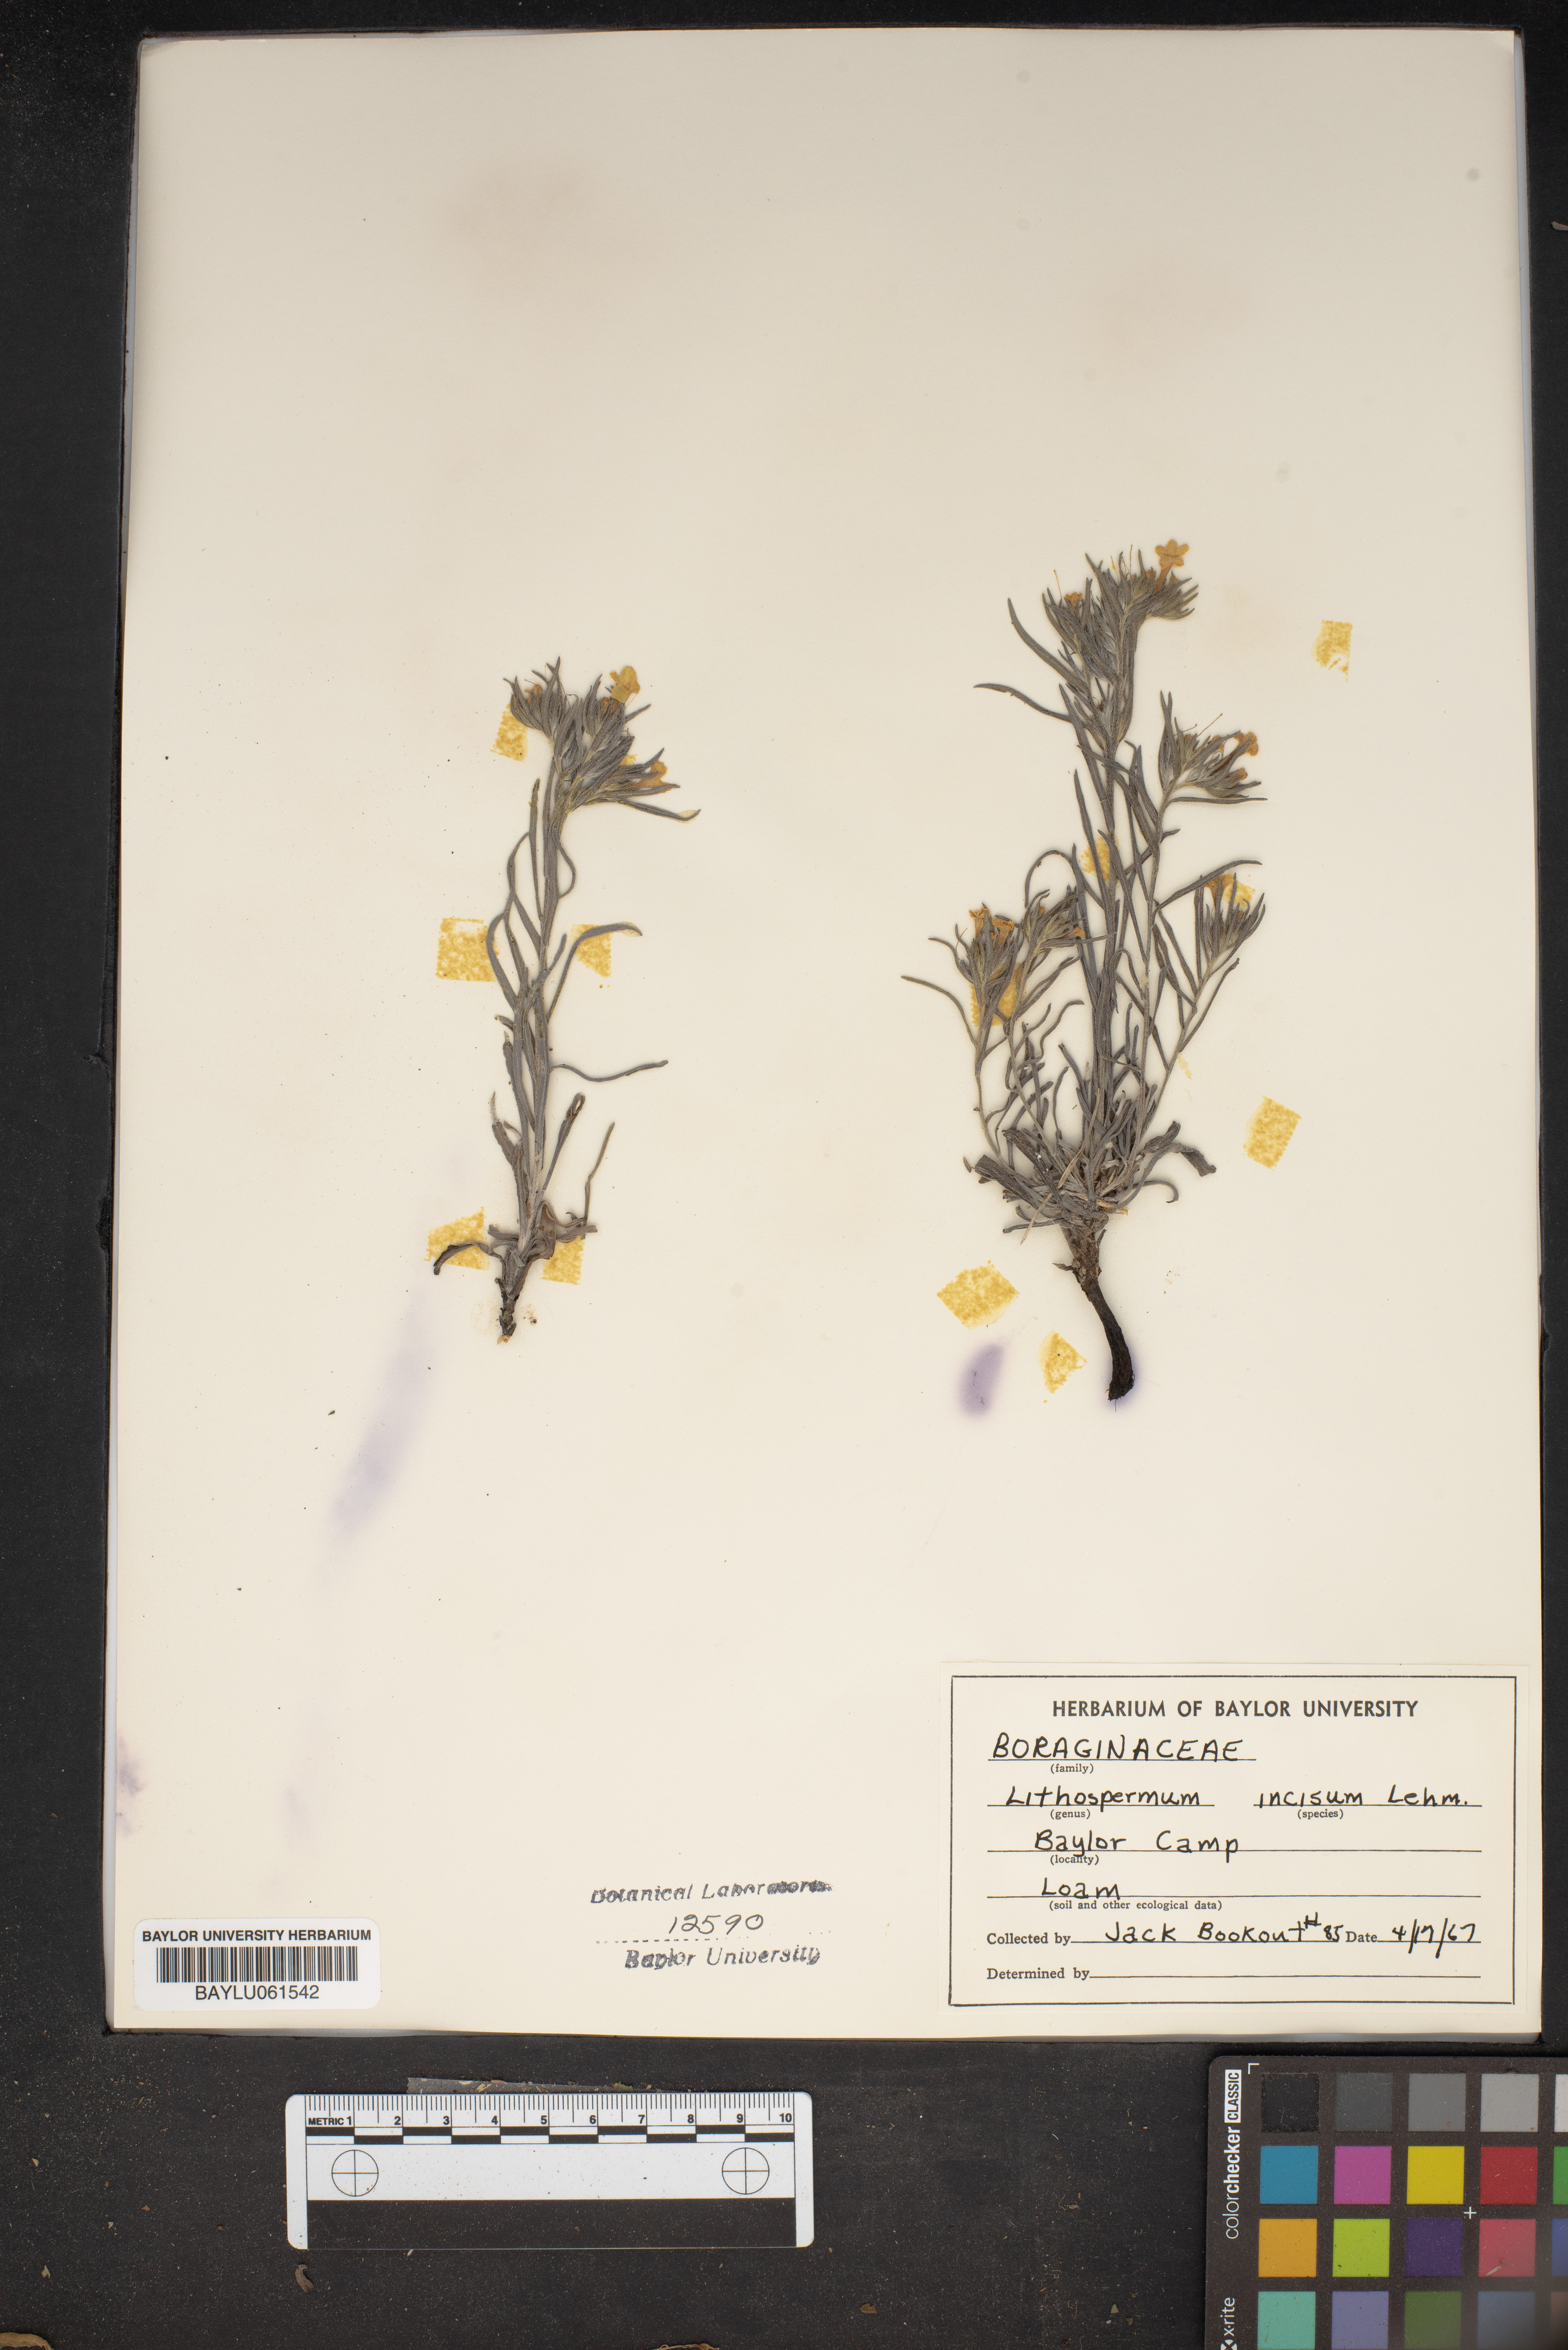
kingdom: Plantae
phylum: Tracheophyta
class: Magnoliopsida
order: Boraginales
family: Boraginaceae
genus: Lithospermum
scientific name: Lithospermum incisum
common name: Fringed gromwell
